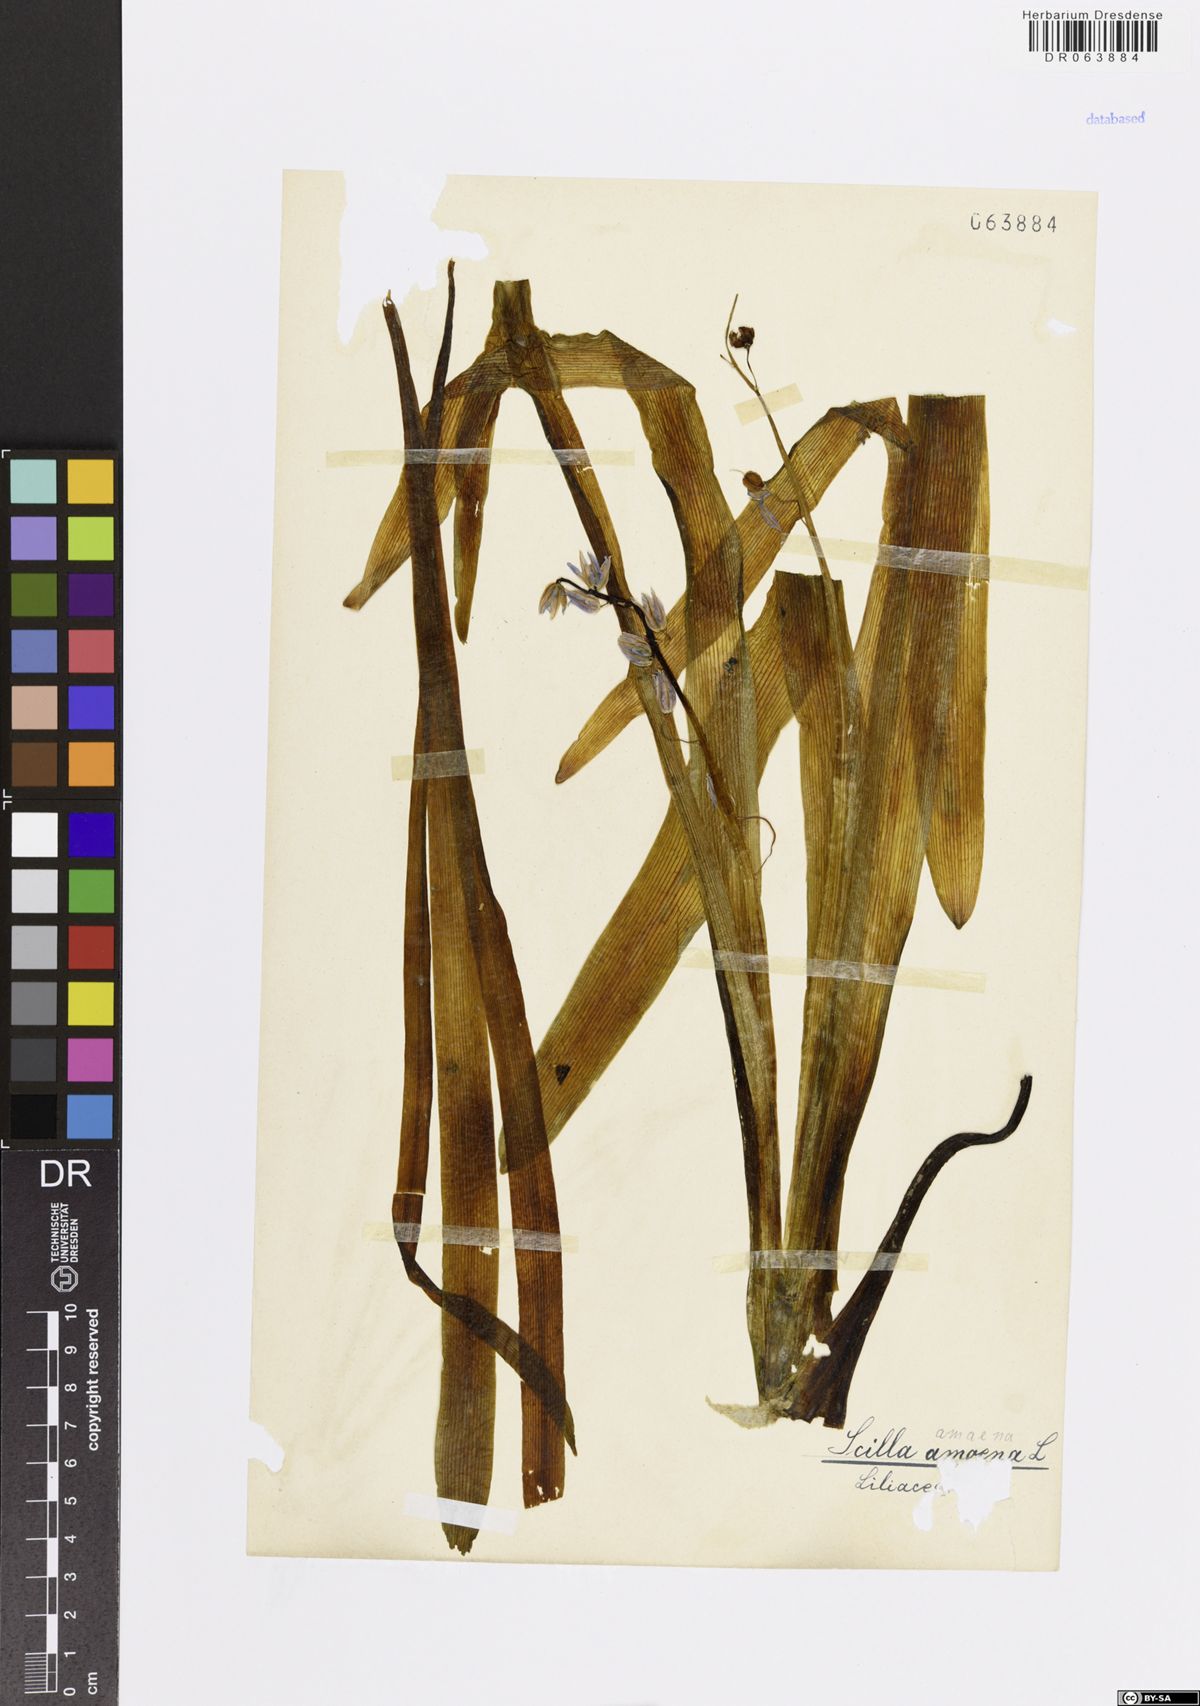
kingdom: Plantae
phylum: Tracheophyta
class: Liliopsida
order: Asparagales
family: Asparagaceae
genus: Scilla
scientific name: Scilla amoena
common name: Star-hyacinth
